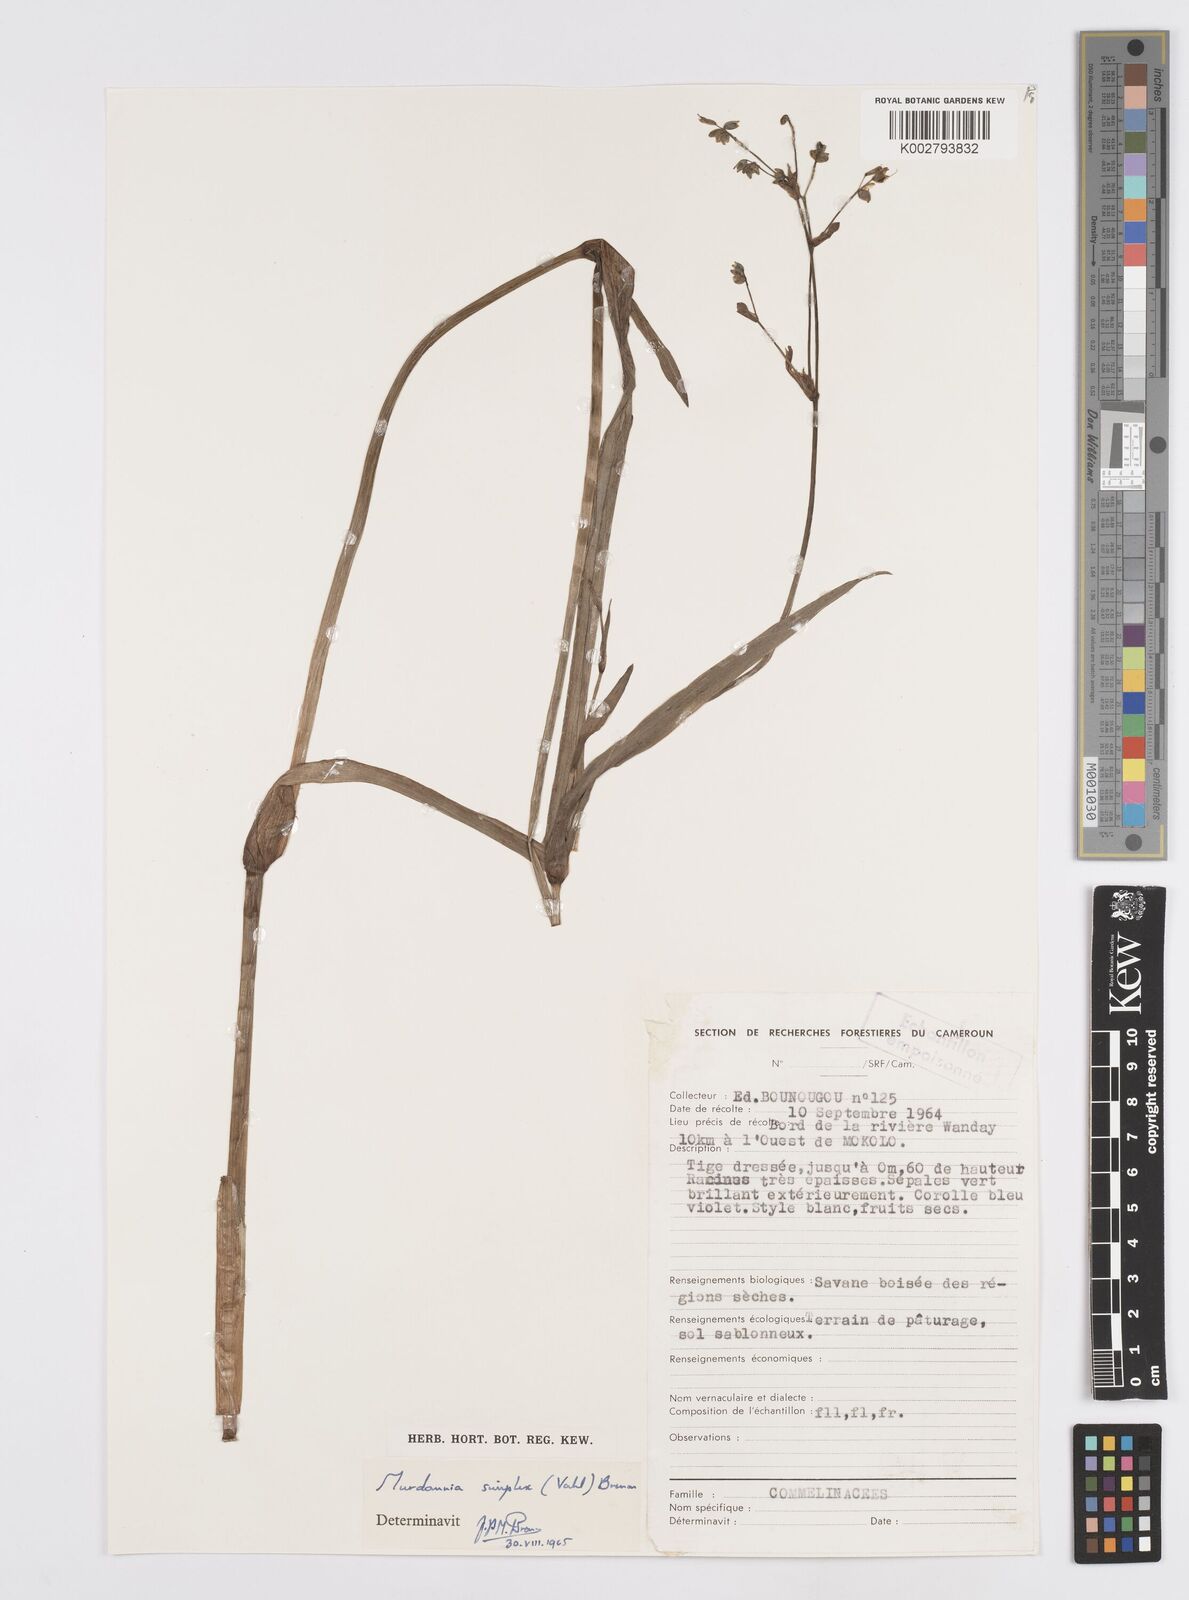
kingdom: Plantae
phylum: Tracheophyta
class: Liliopsida
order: Commelinales
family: Commelinaceae
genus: Murdannia
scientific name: Murdannia simplex
